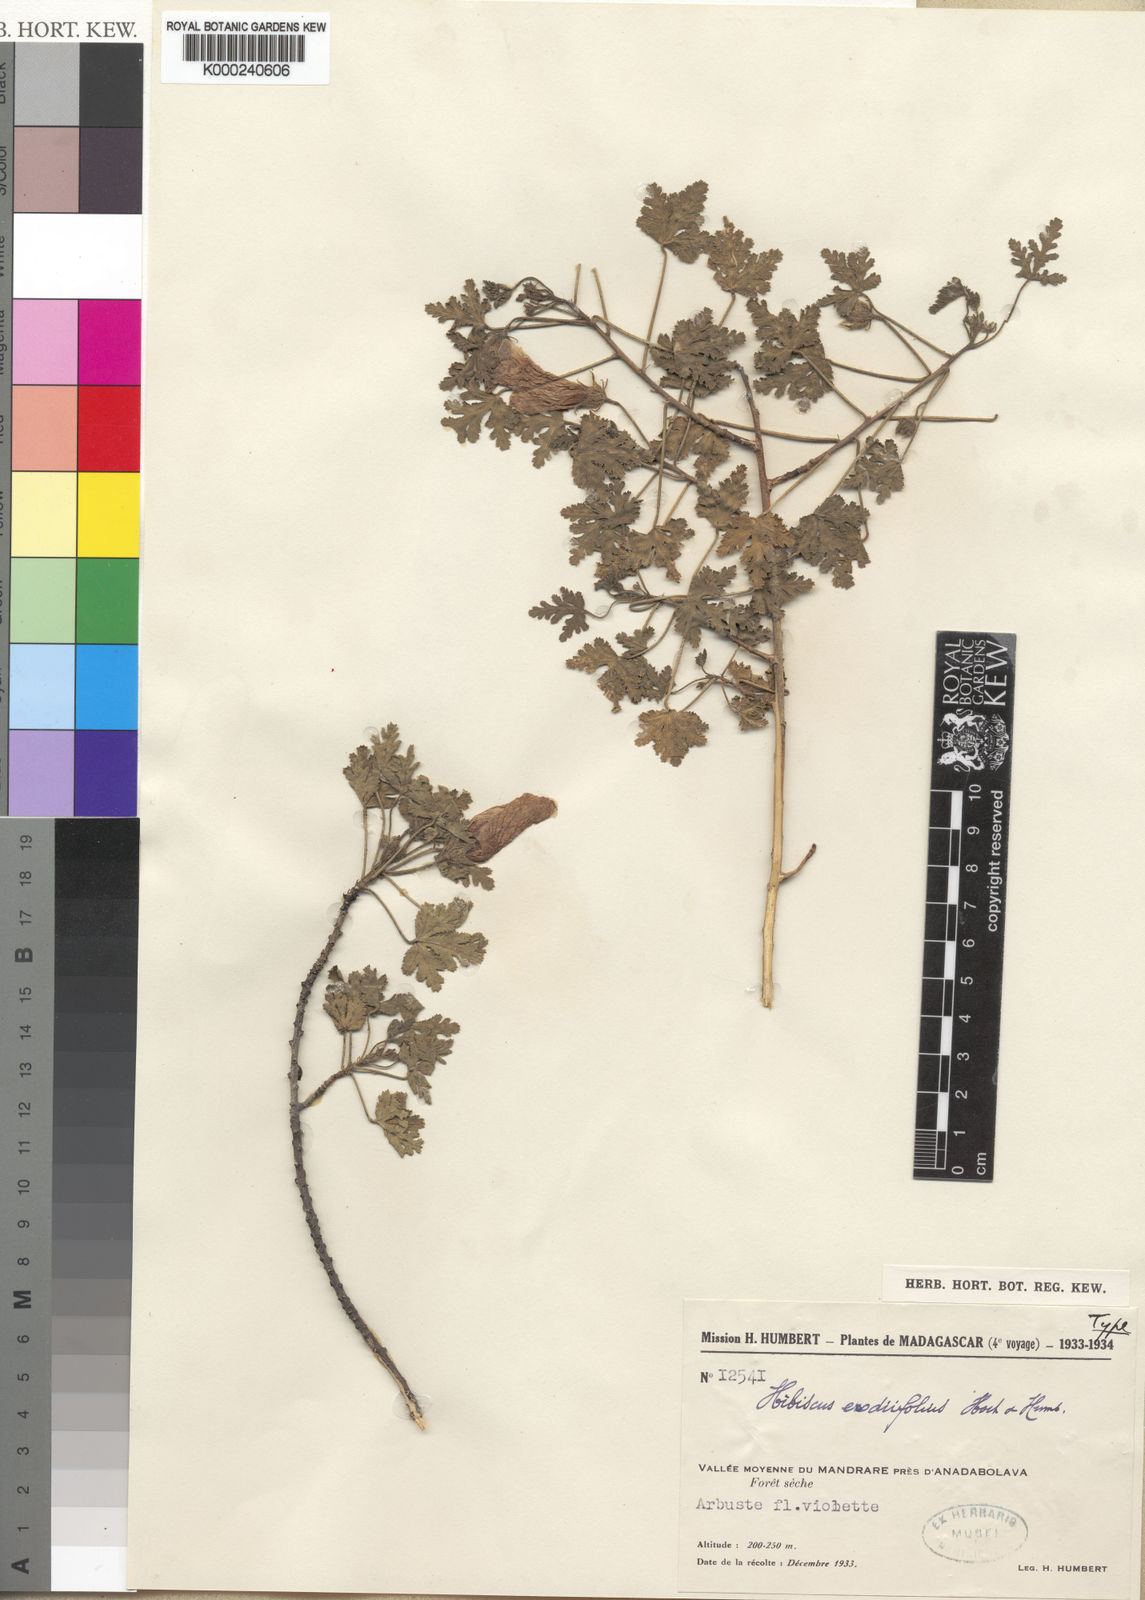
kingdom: Plantae
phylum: Tracheophyta
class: Magnoliopsida
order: Malvales
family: Malvaceae
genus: Hibiscus
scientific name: Hibiscus erodiifolius
